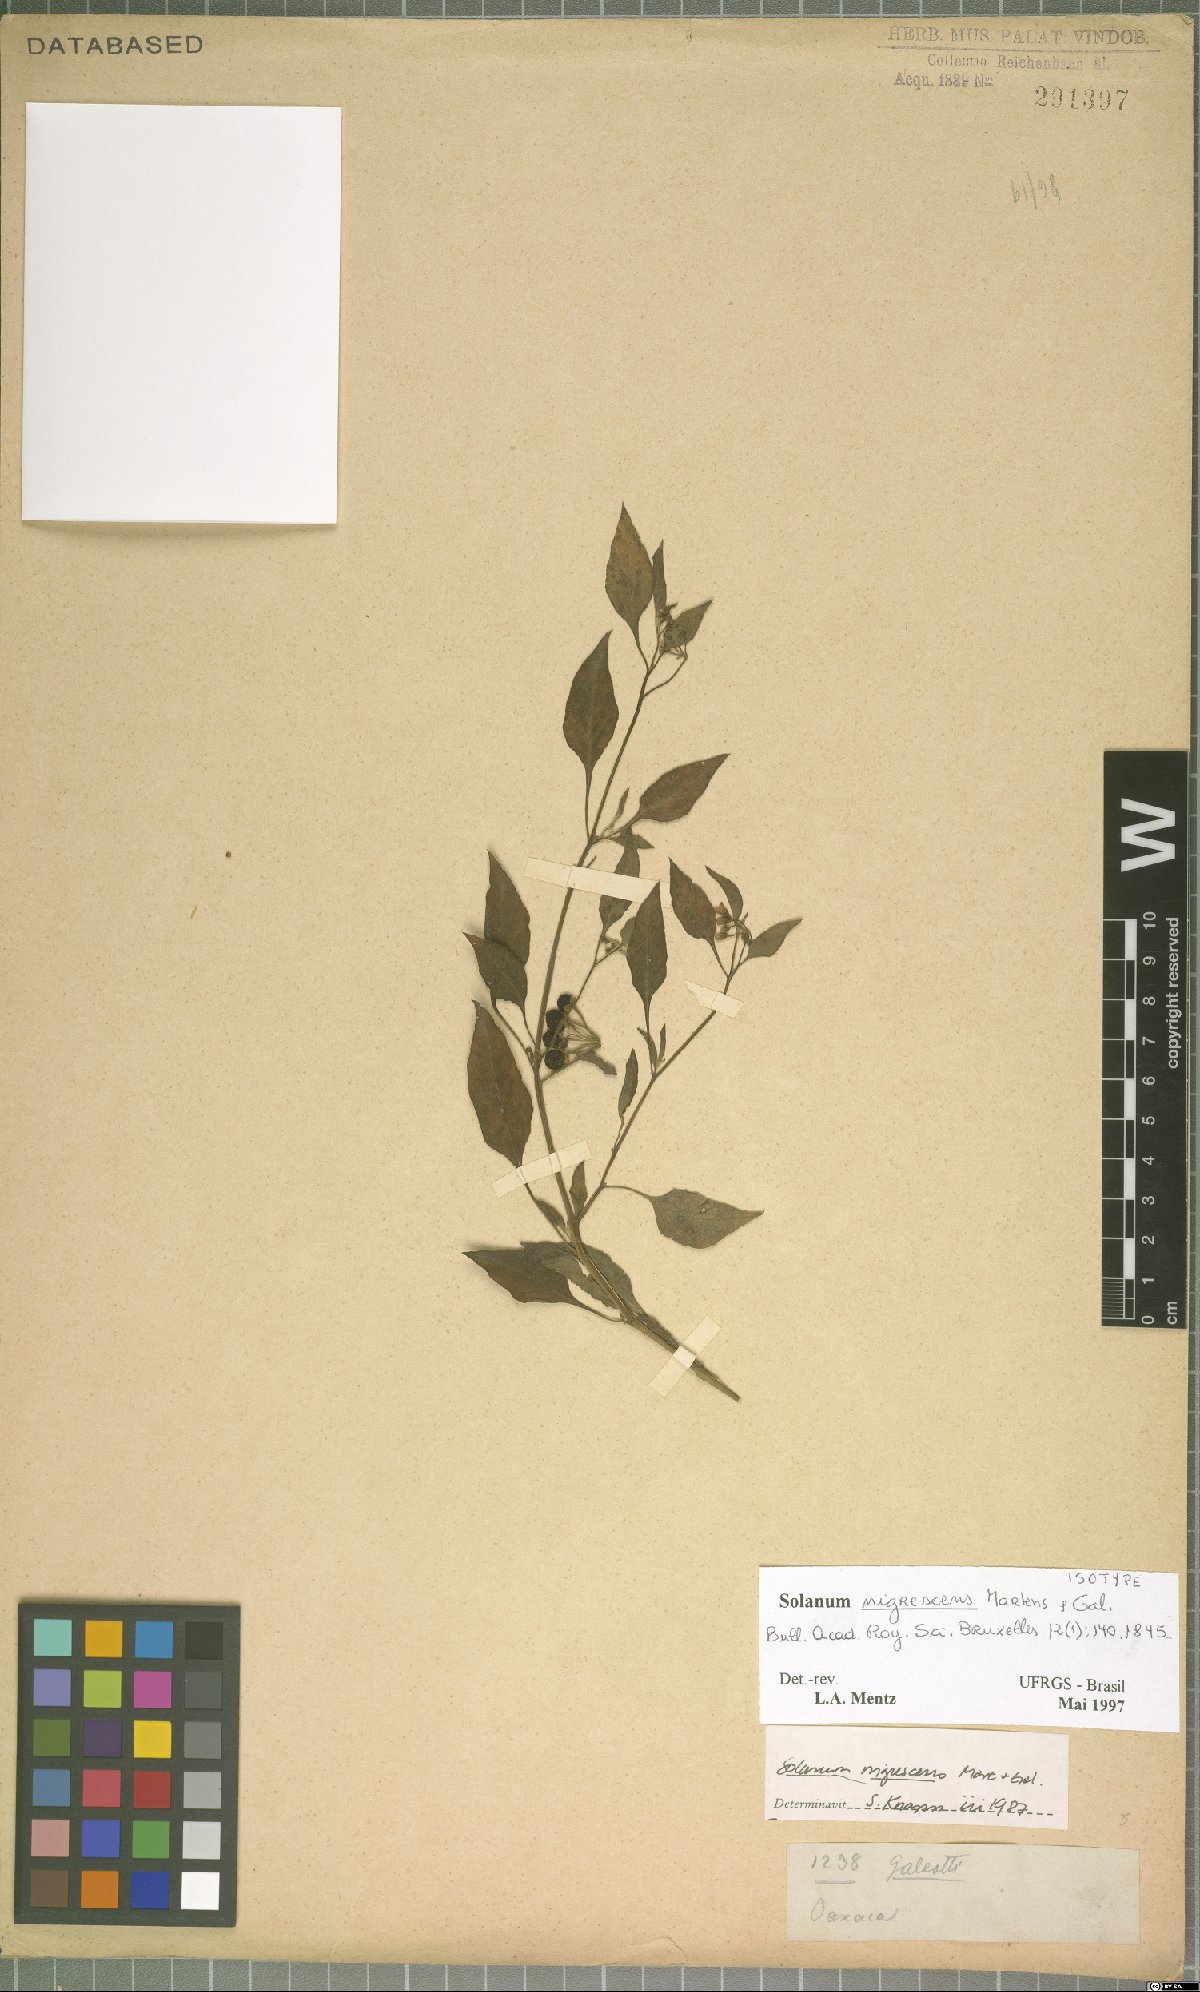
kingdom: Plantae
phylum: Tracheophyta
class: Magnoliopsida
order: Solanales
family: Solanaceae
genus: Solanum
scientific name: Solanum nigrescens
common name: Divine nightshade
